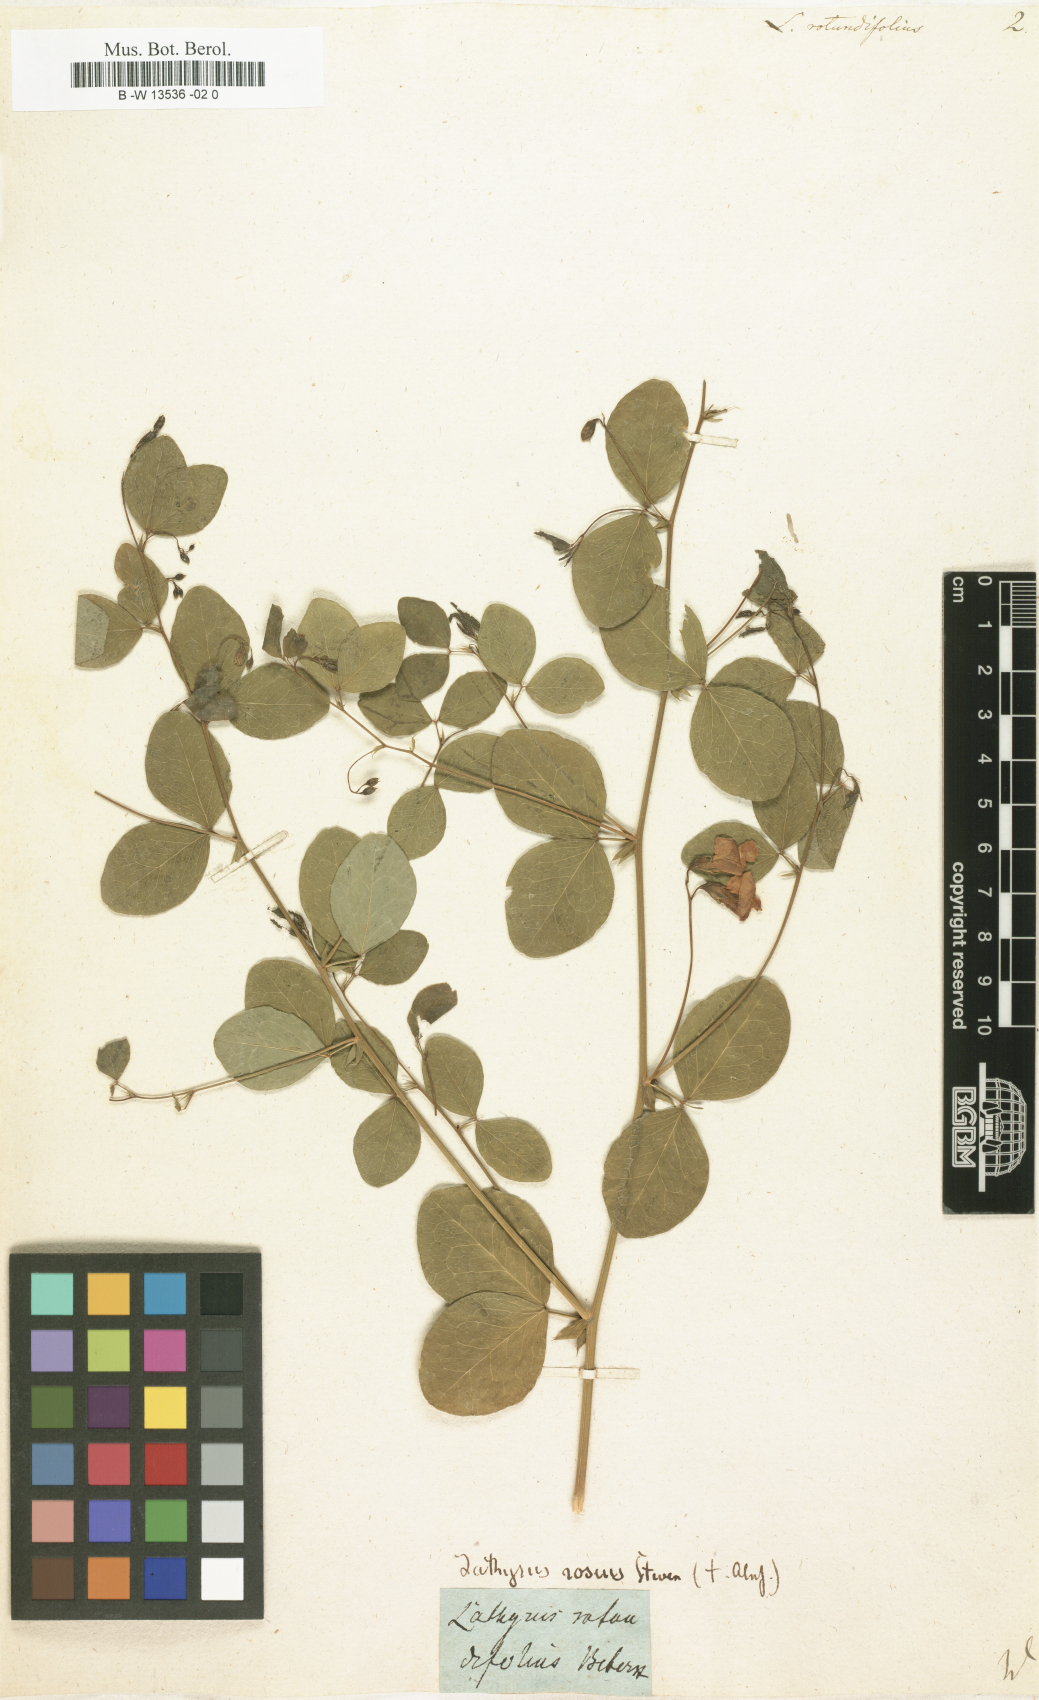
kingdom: Plantae
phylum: Tracheophyta
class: Magnoliopsida
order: Fabales
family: Fabaceae
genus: Lathyrus
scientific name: Lathyrus rotundifolius
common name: Round-leaf vetchling
